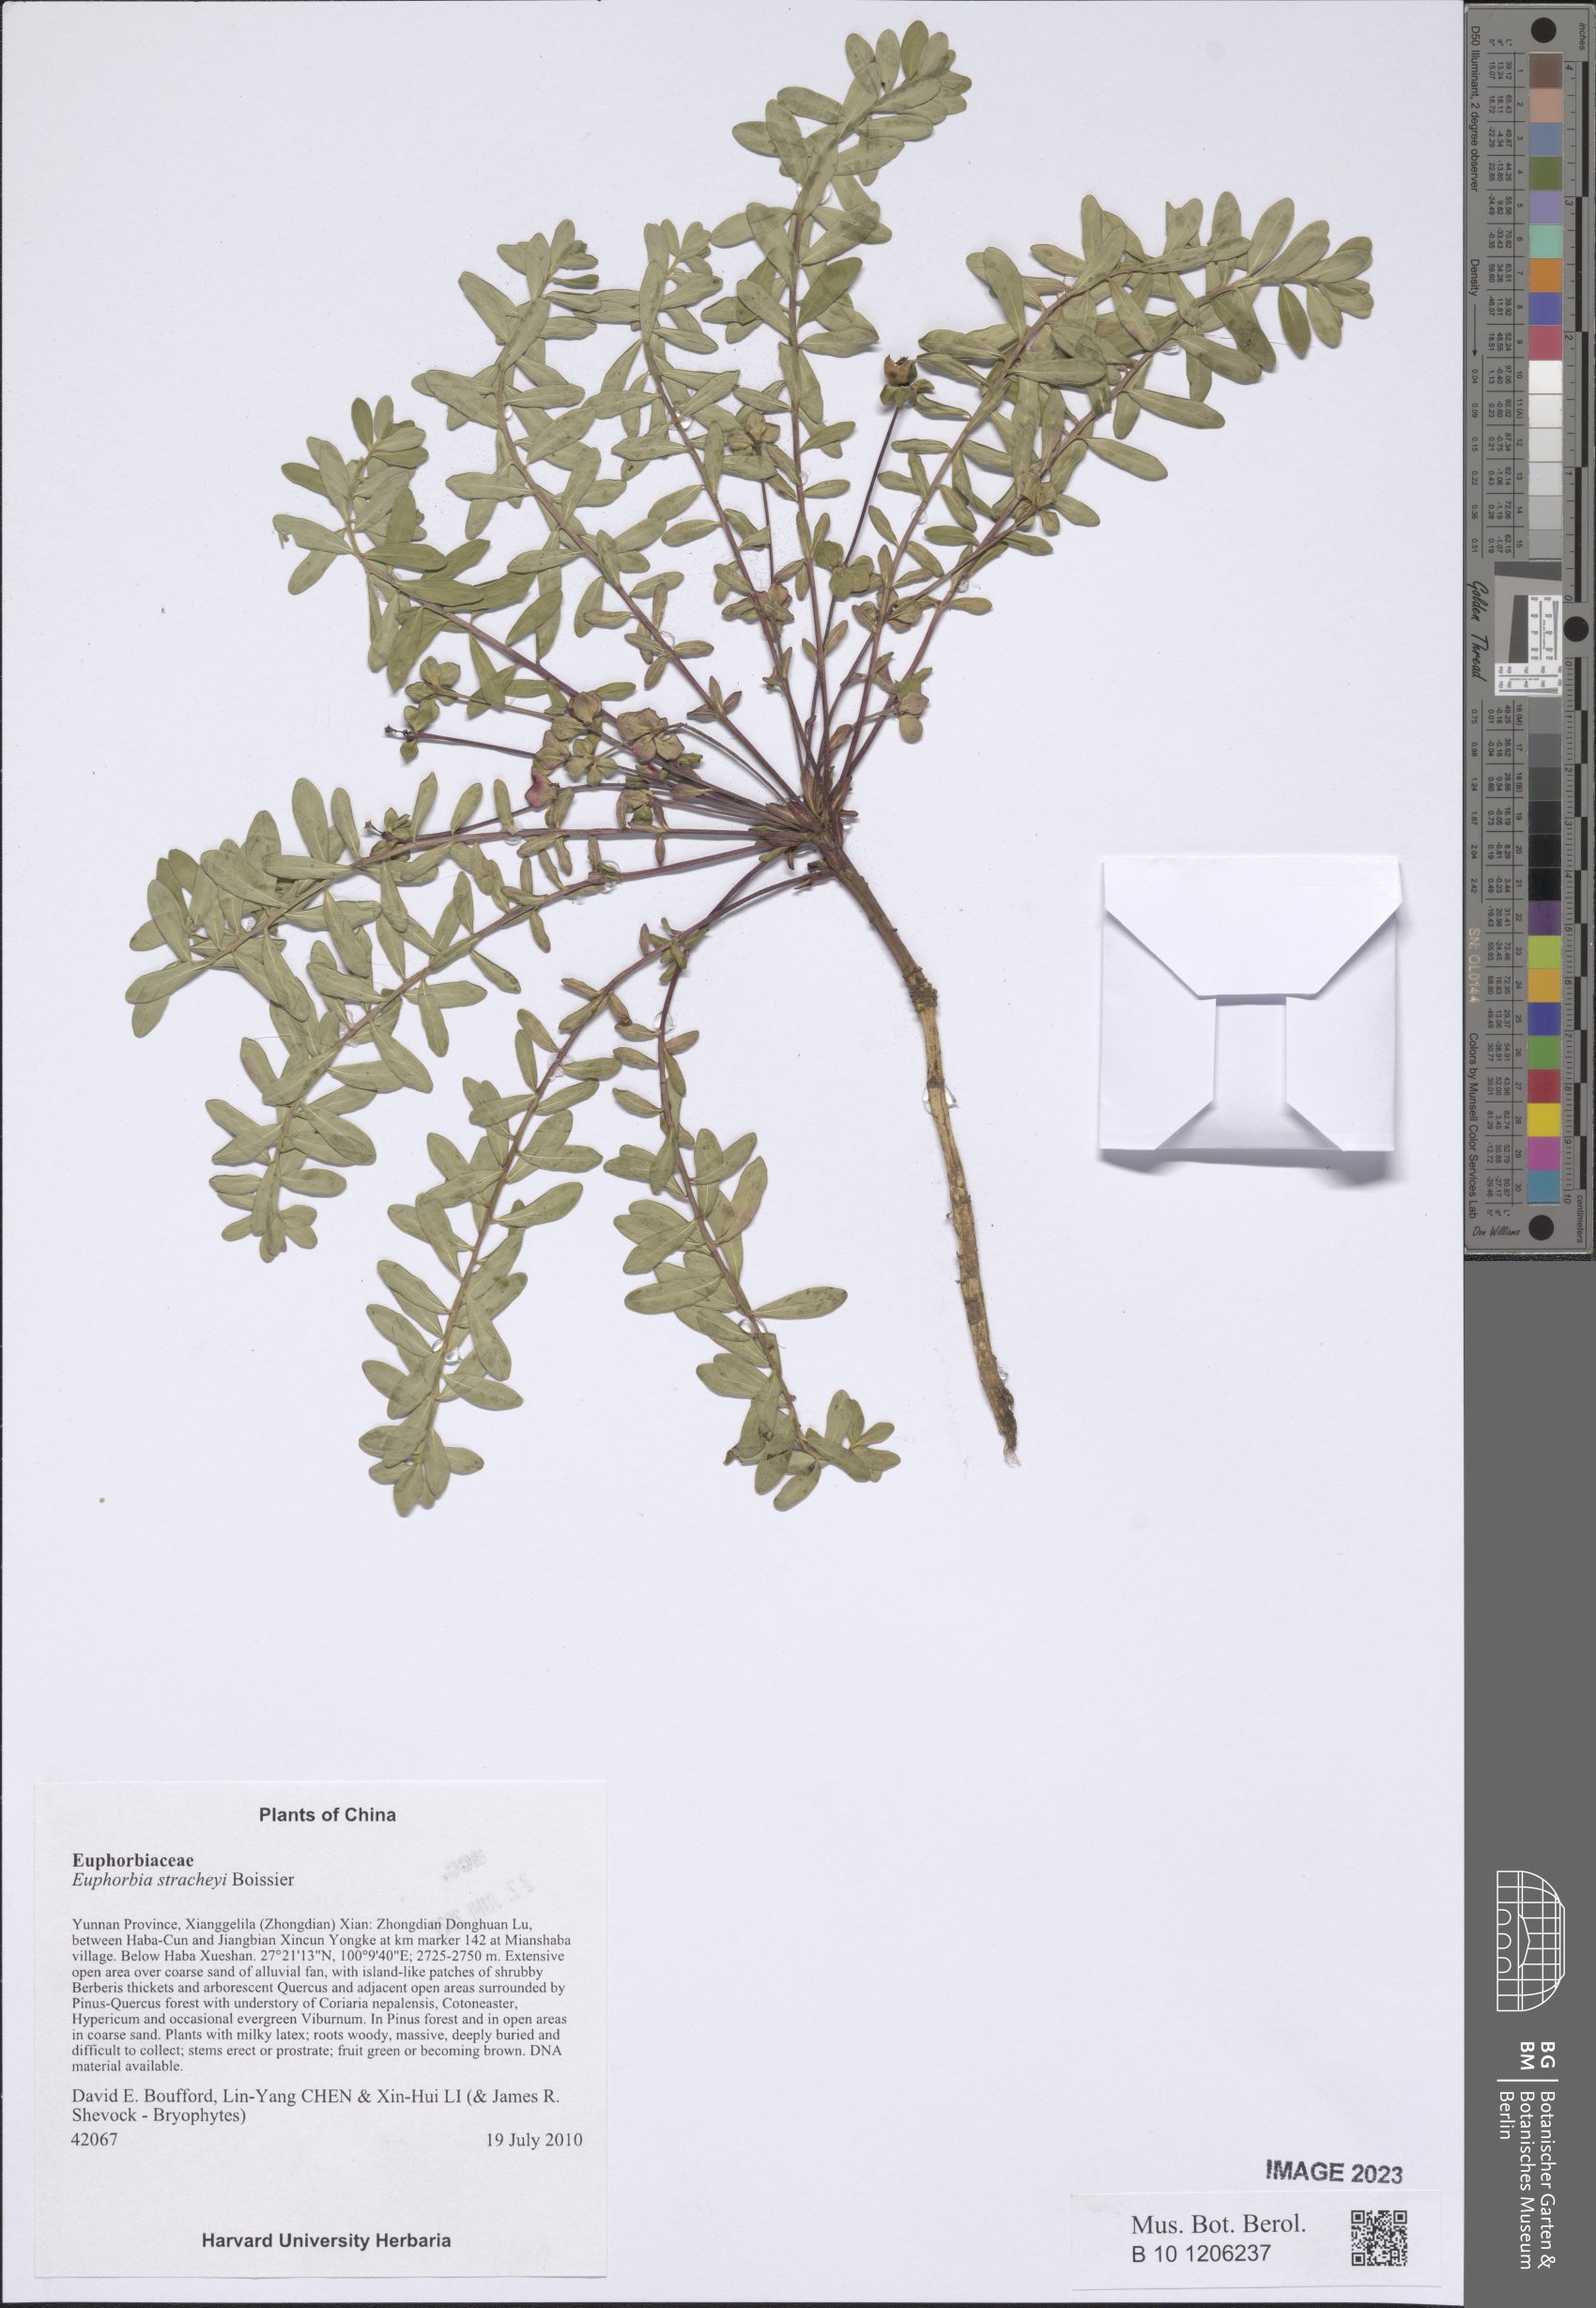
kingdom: Plantae
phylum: Tracheophyta
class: Magnoliopsida
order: Malpighiales
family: Euphorbiaceae
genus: Euphorbia
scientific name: Euphorbia stracheyi
